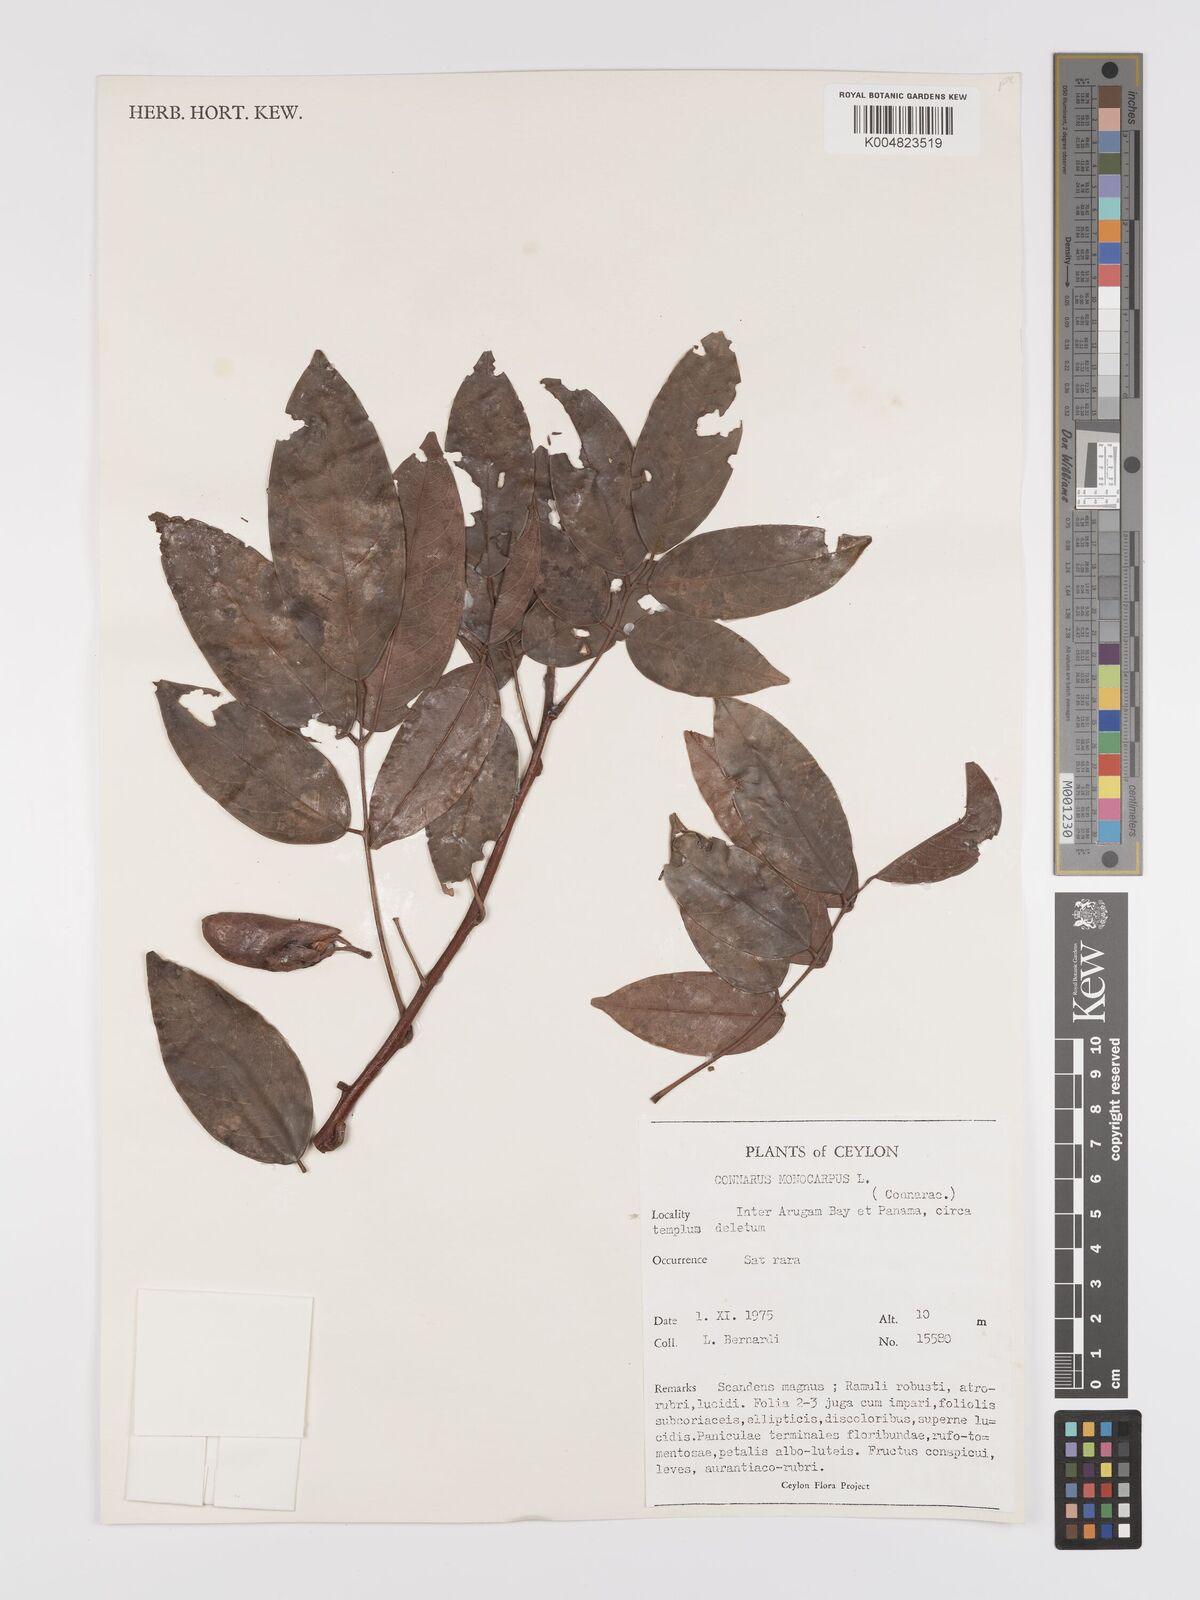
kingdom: Plantae
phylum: Tracheophyta
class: Magnoliopsida
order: Oxalidales
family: Connaraceae
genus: Connarus
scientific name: Connarus semidecandrus
